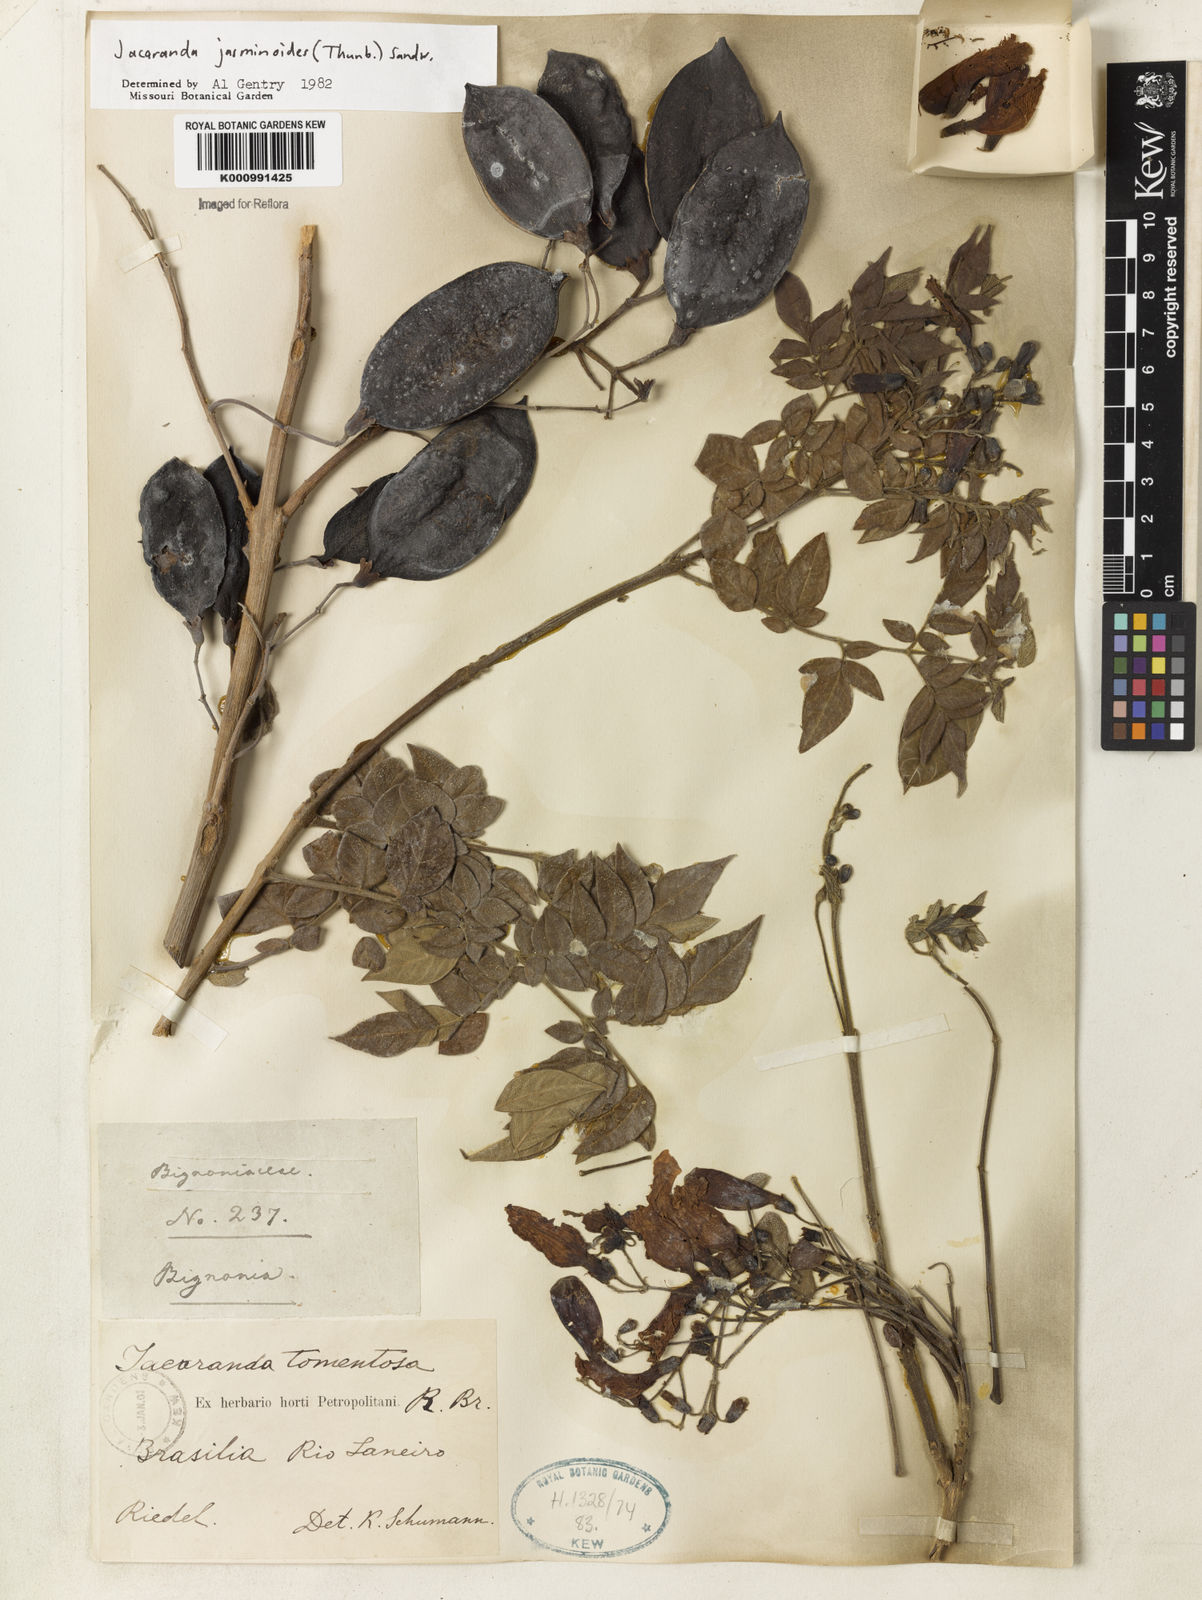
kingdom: Plantae
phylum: Tracheophyta
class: Magnoliopsida
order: Lamiales
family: Bignoniaceae
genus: Jacaranda
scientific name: Jacaranda jasminoides
